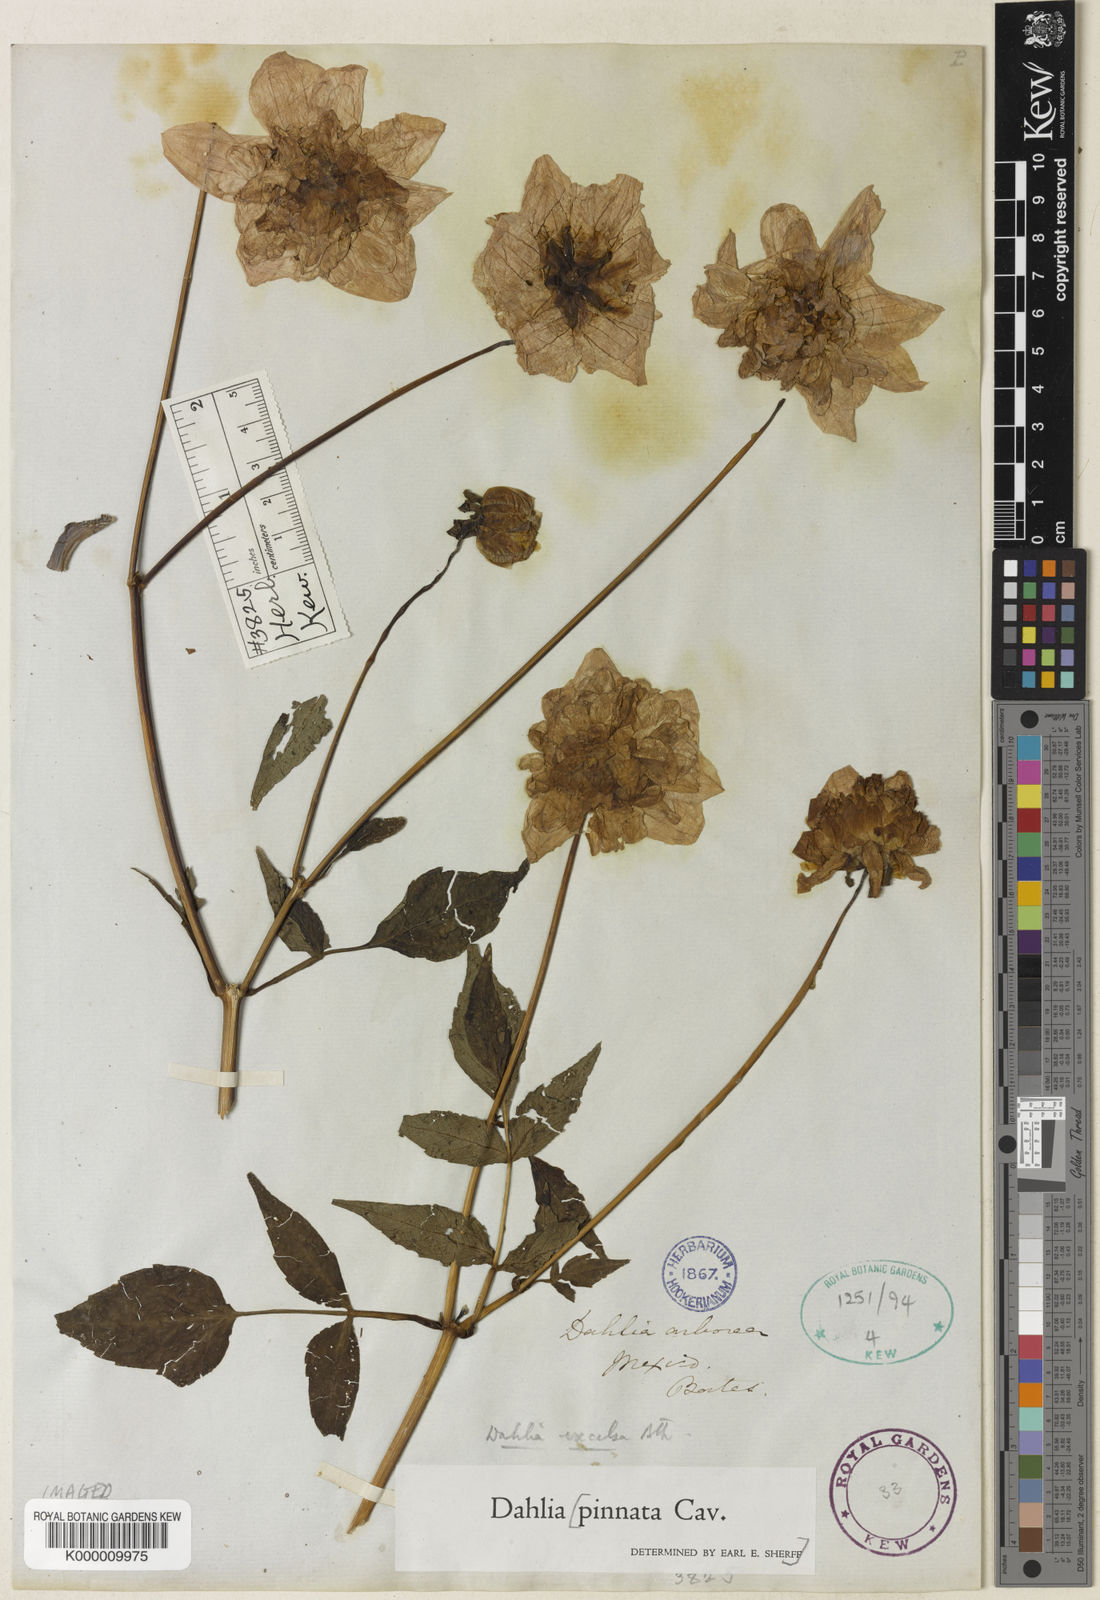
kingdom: Plantae
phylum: Tracheophyta
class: Magnoliopsida
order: Asterales
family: Asteraceae
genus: Dahlia
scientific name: Dahlia excelsa
